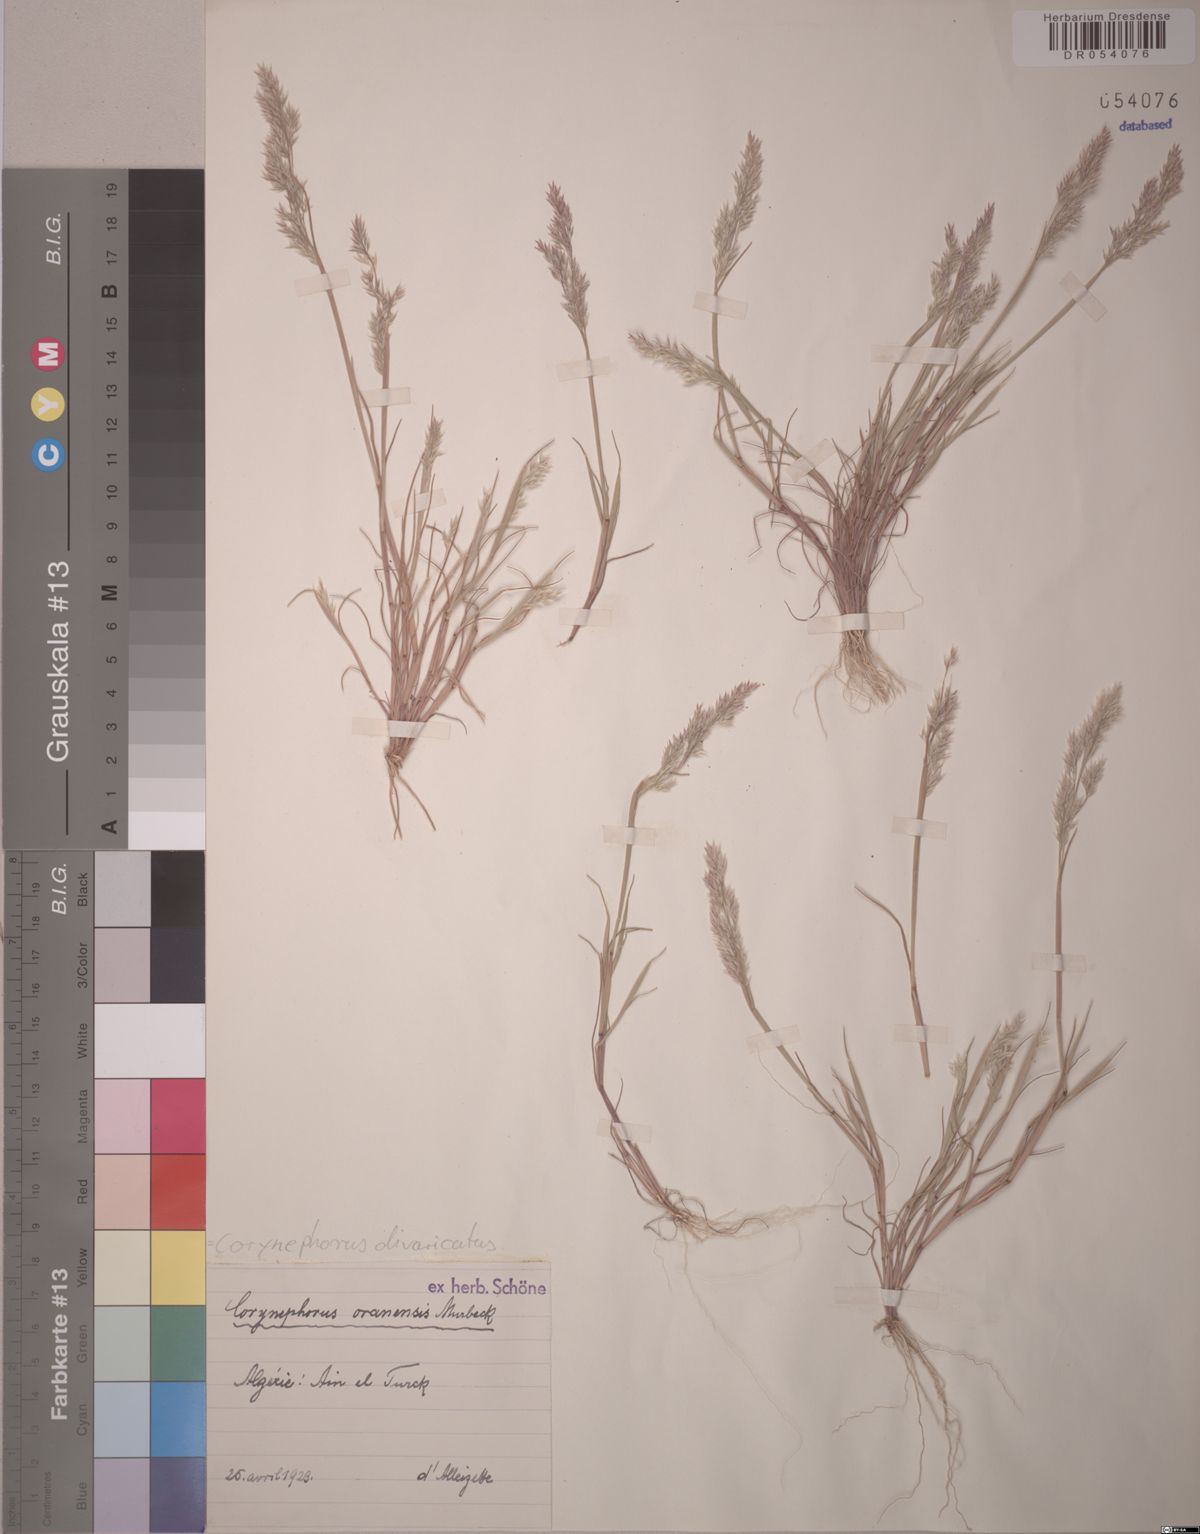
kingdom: Plantae
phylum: Tracheophyta
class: Liliopsida
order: Poales
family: Poaceae
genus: Corynephorus
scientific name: Corynephorus divaricatus
